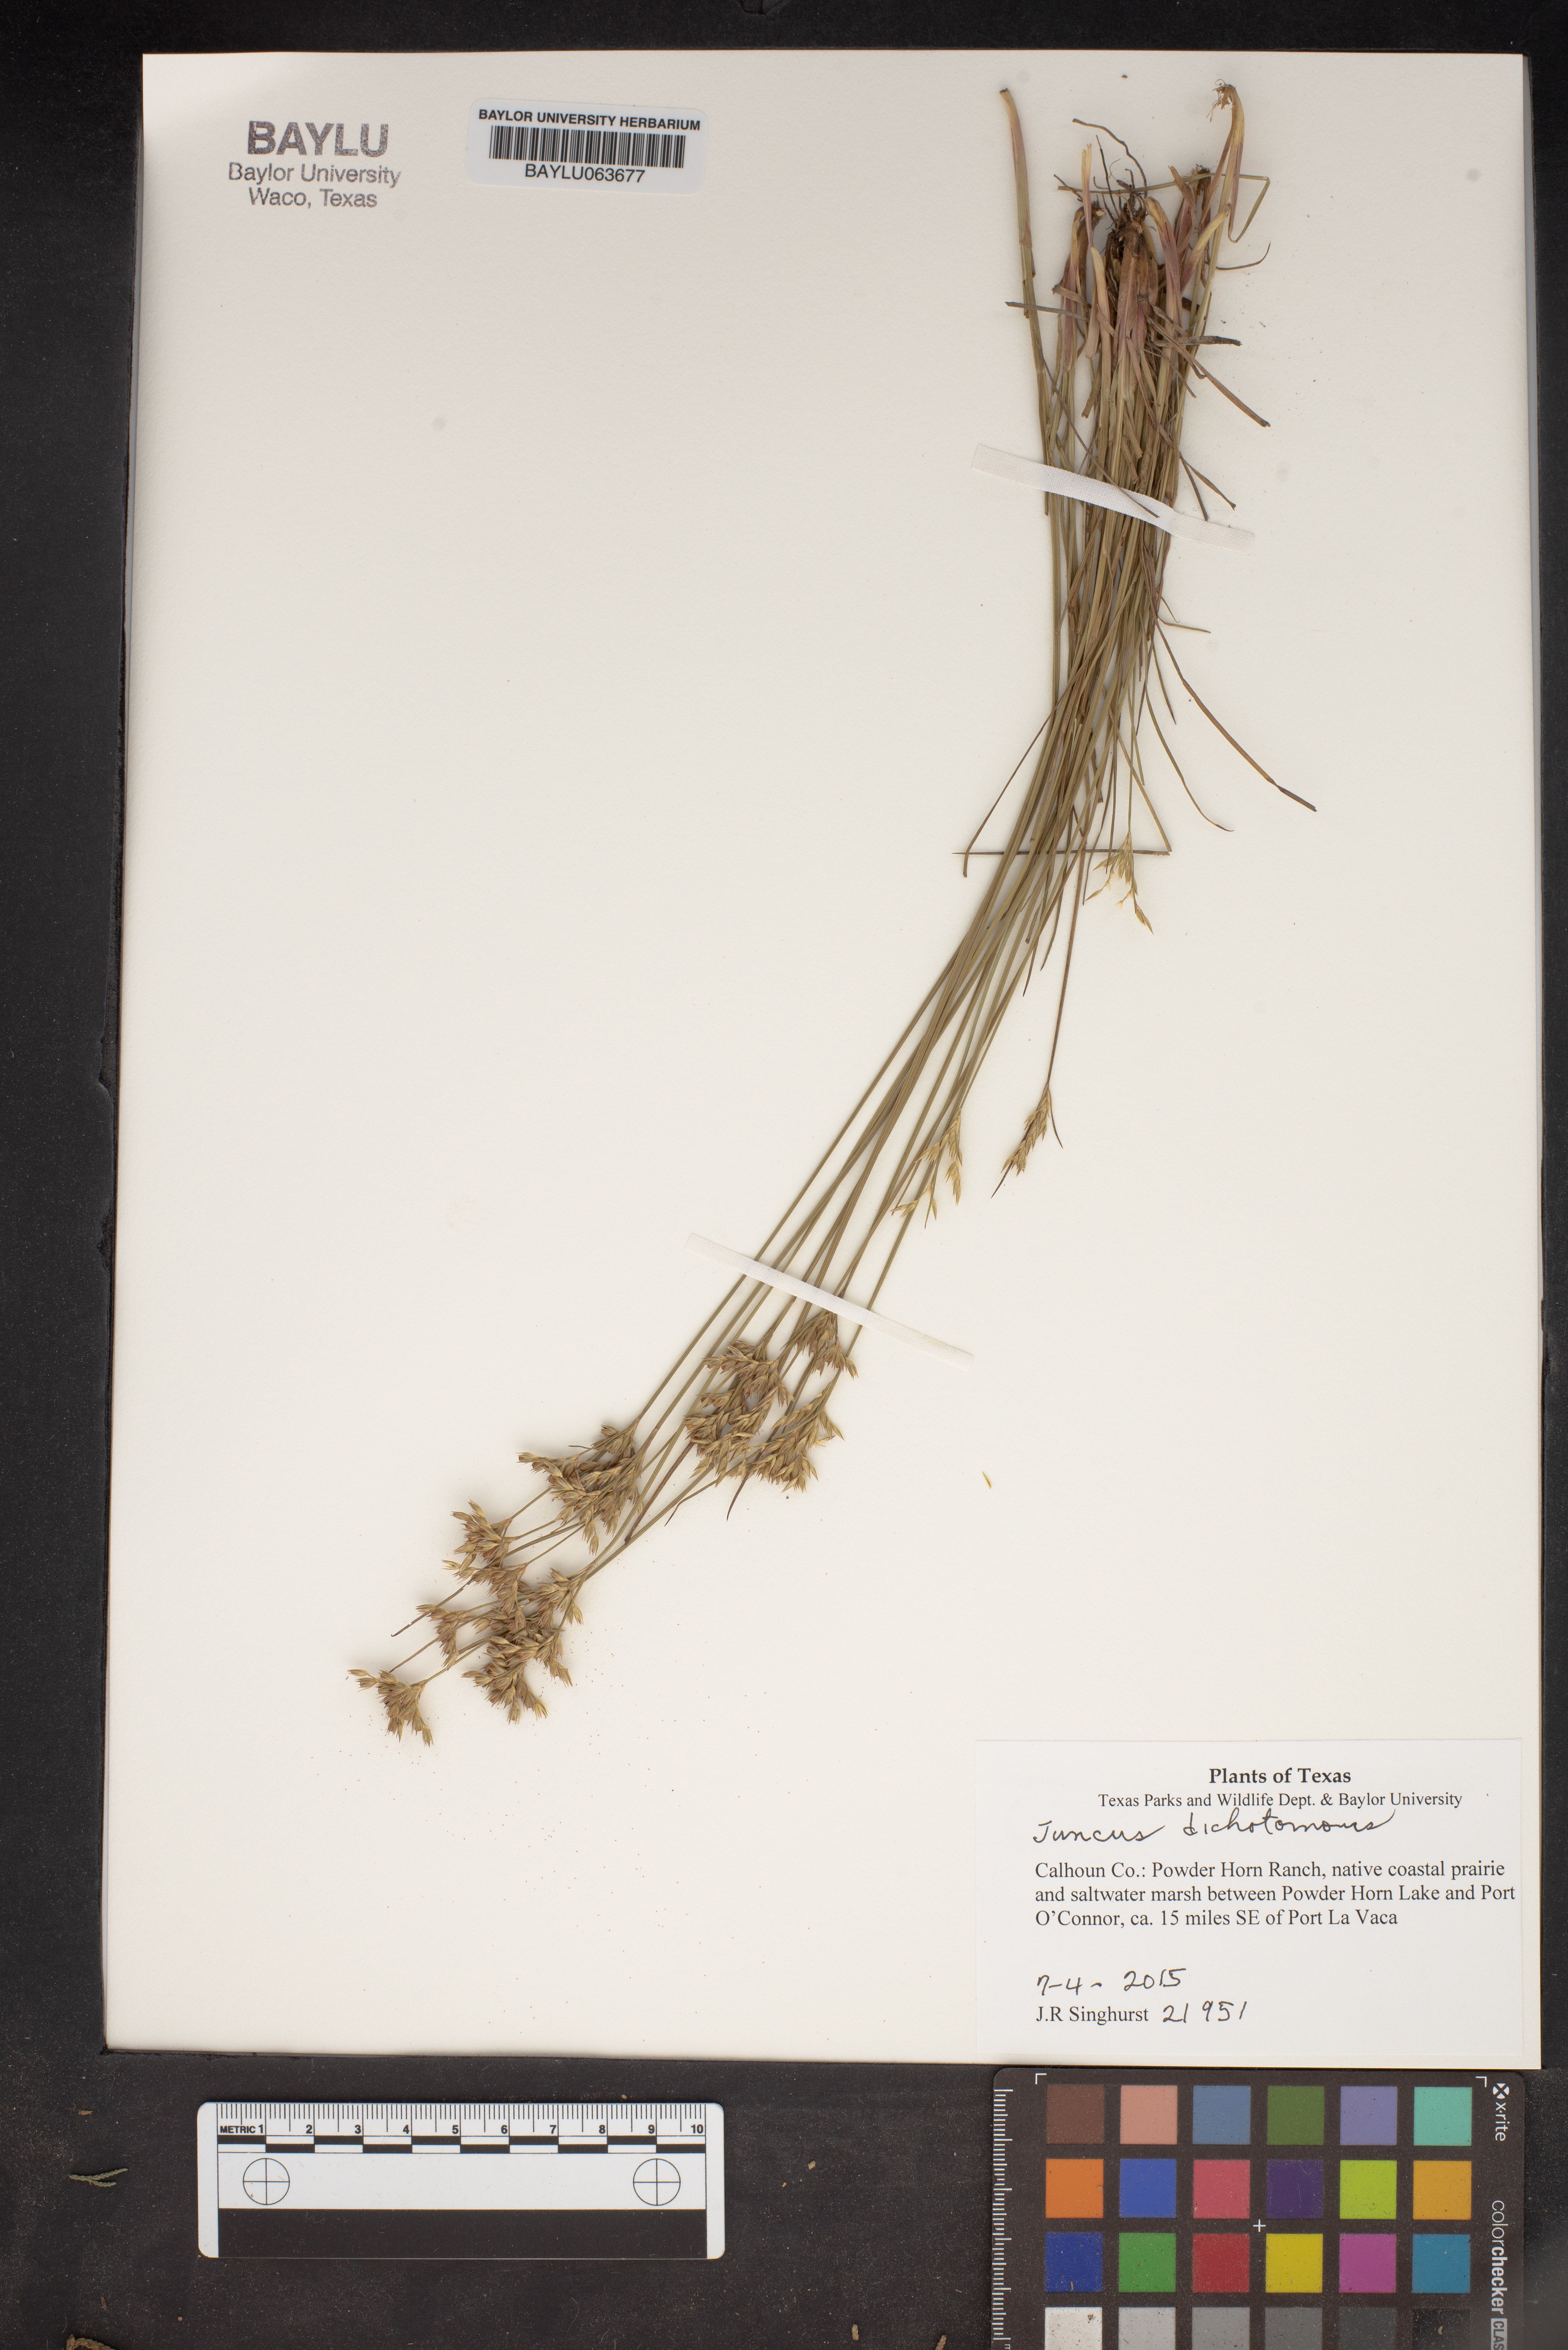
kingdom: Plantae
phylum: Tracheophyta
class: Liliopsida
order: Poales
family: Juncaceae
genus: Juncus
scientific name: Juncus dichotomus
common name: Forked rush
